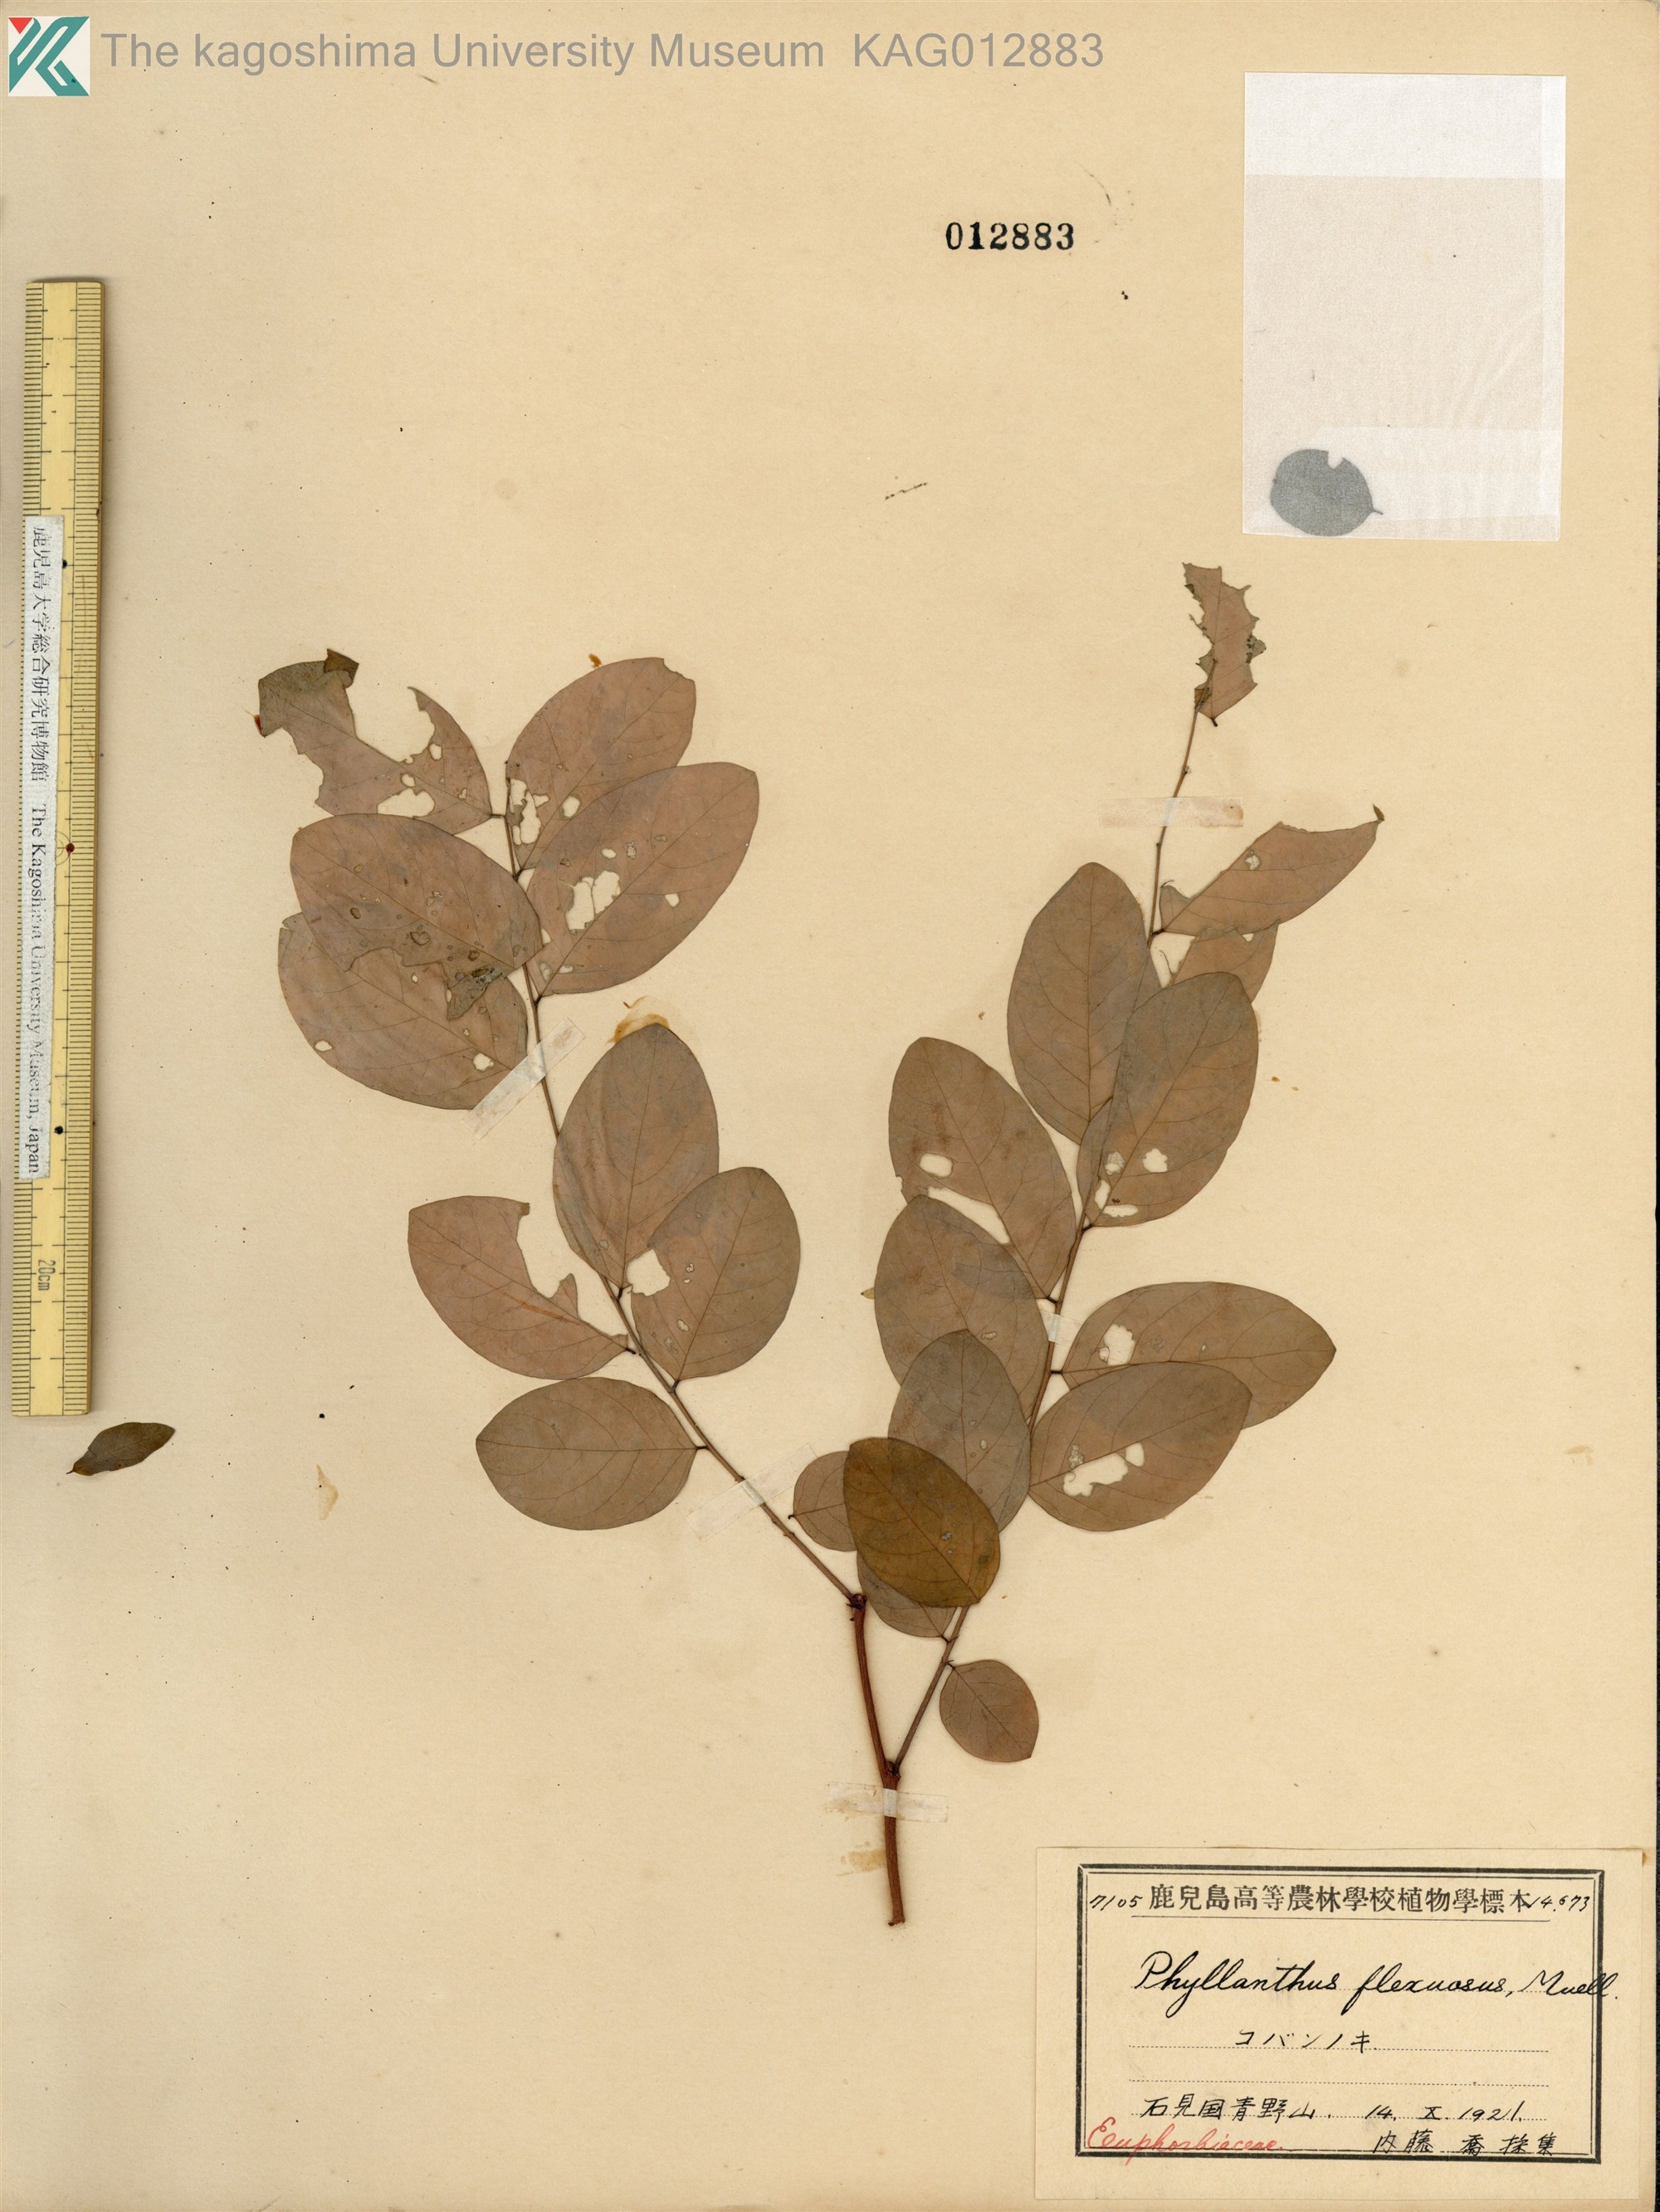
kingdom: Plantae
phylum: Tracheophyta
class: Magnoliopsida
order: Malpighiales
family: Phyllanthaceae
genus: Phyllanthus
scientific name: Phyllanthus flexuosus
